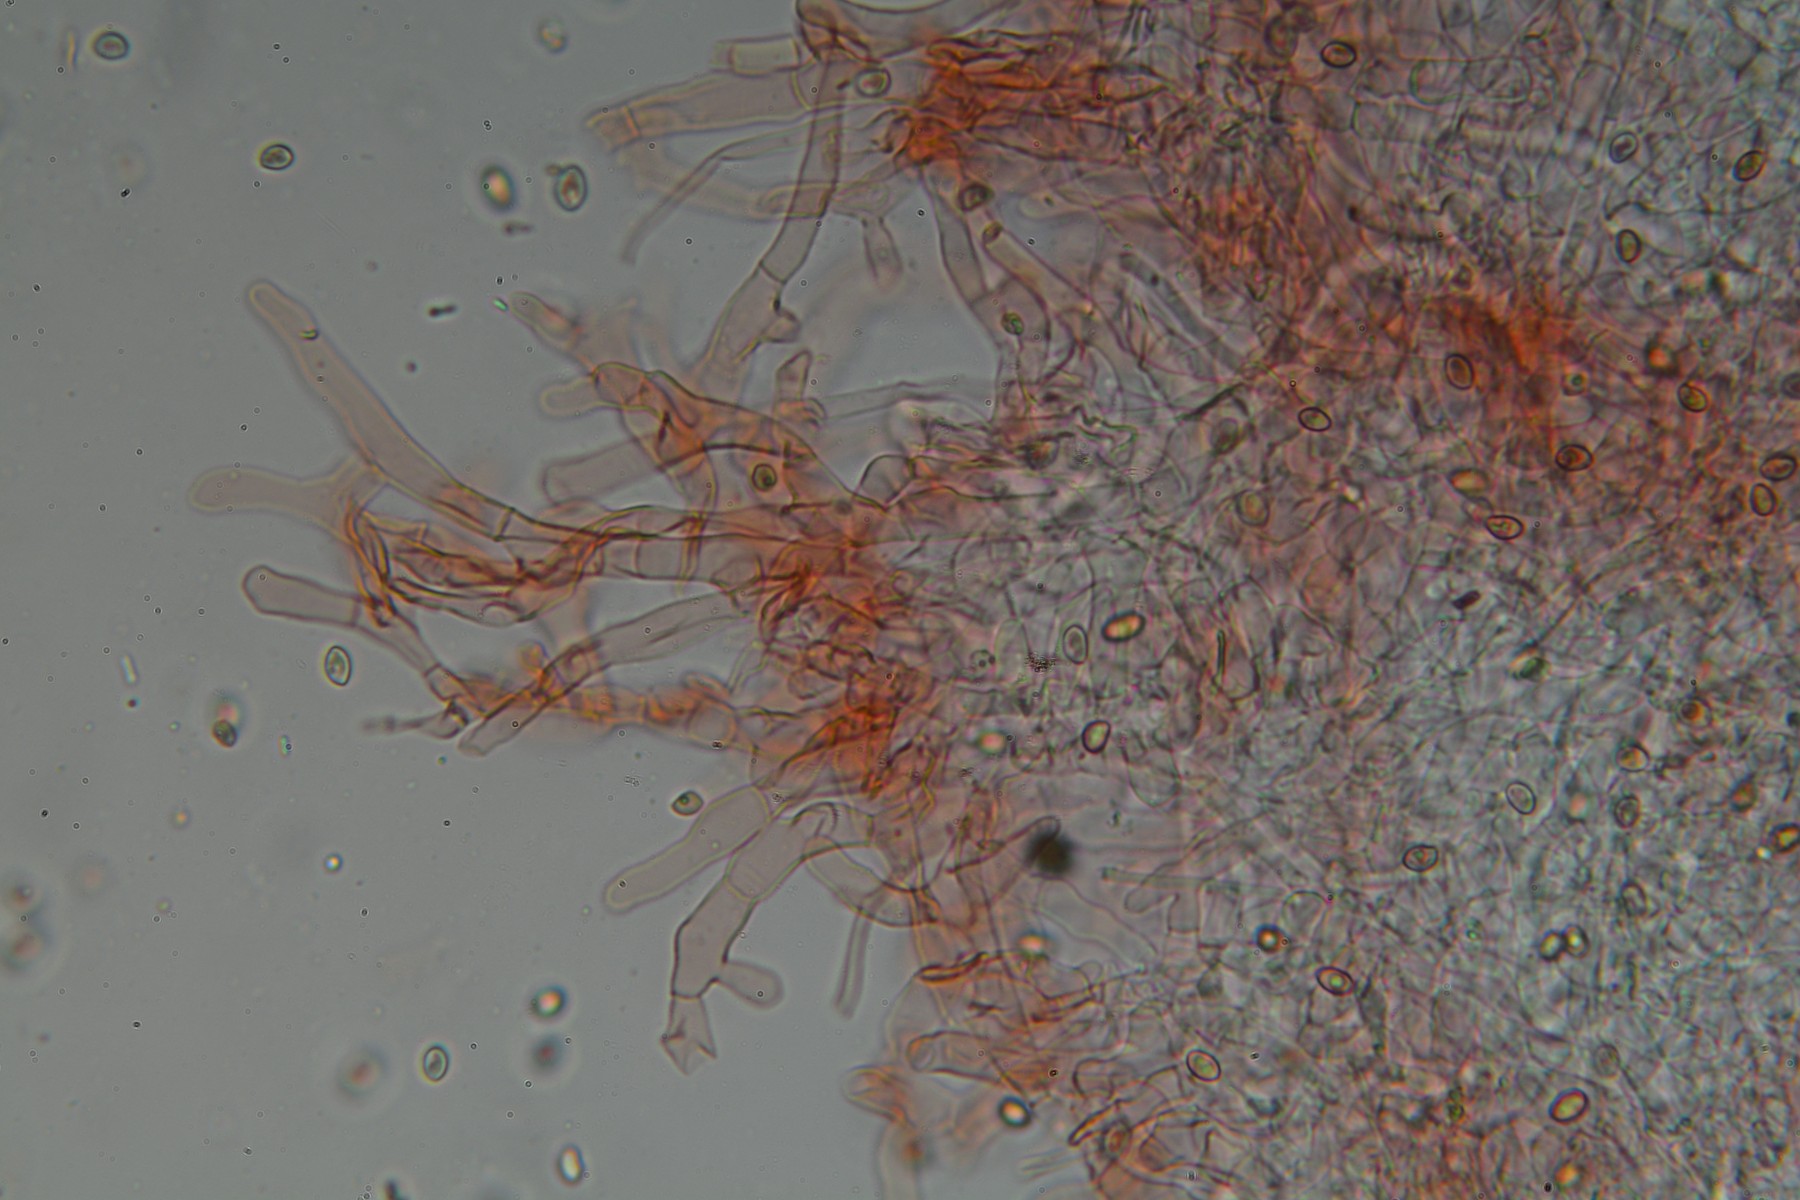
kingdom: Fungi
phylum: Basidiomycota
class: Agaricomycetes
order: Agaricales
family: Crepidotaceae
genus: Crepidotus
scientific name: Crepidotus mollis
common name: blød muslingesvamp
